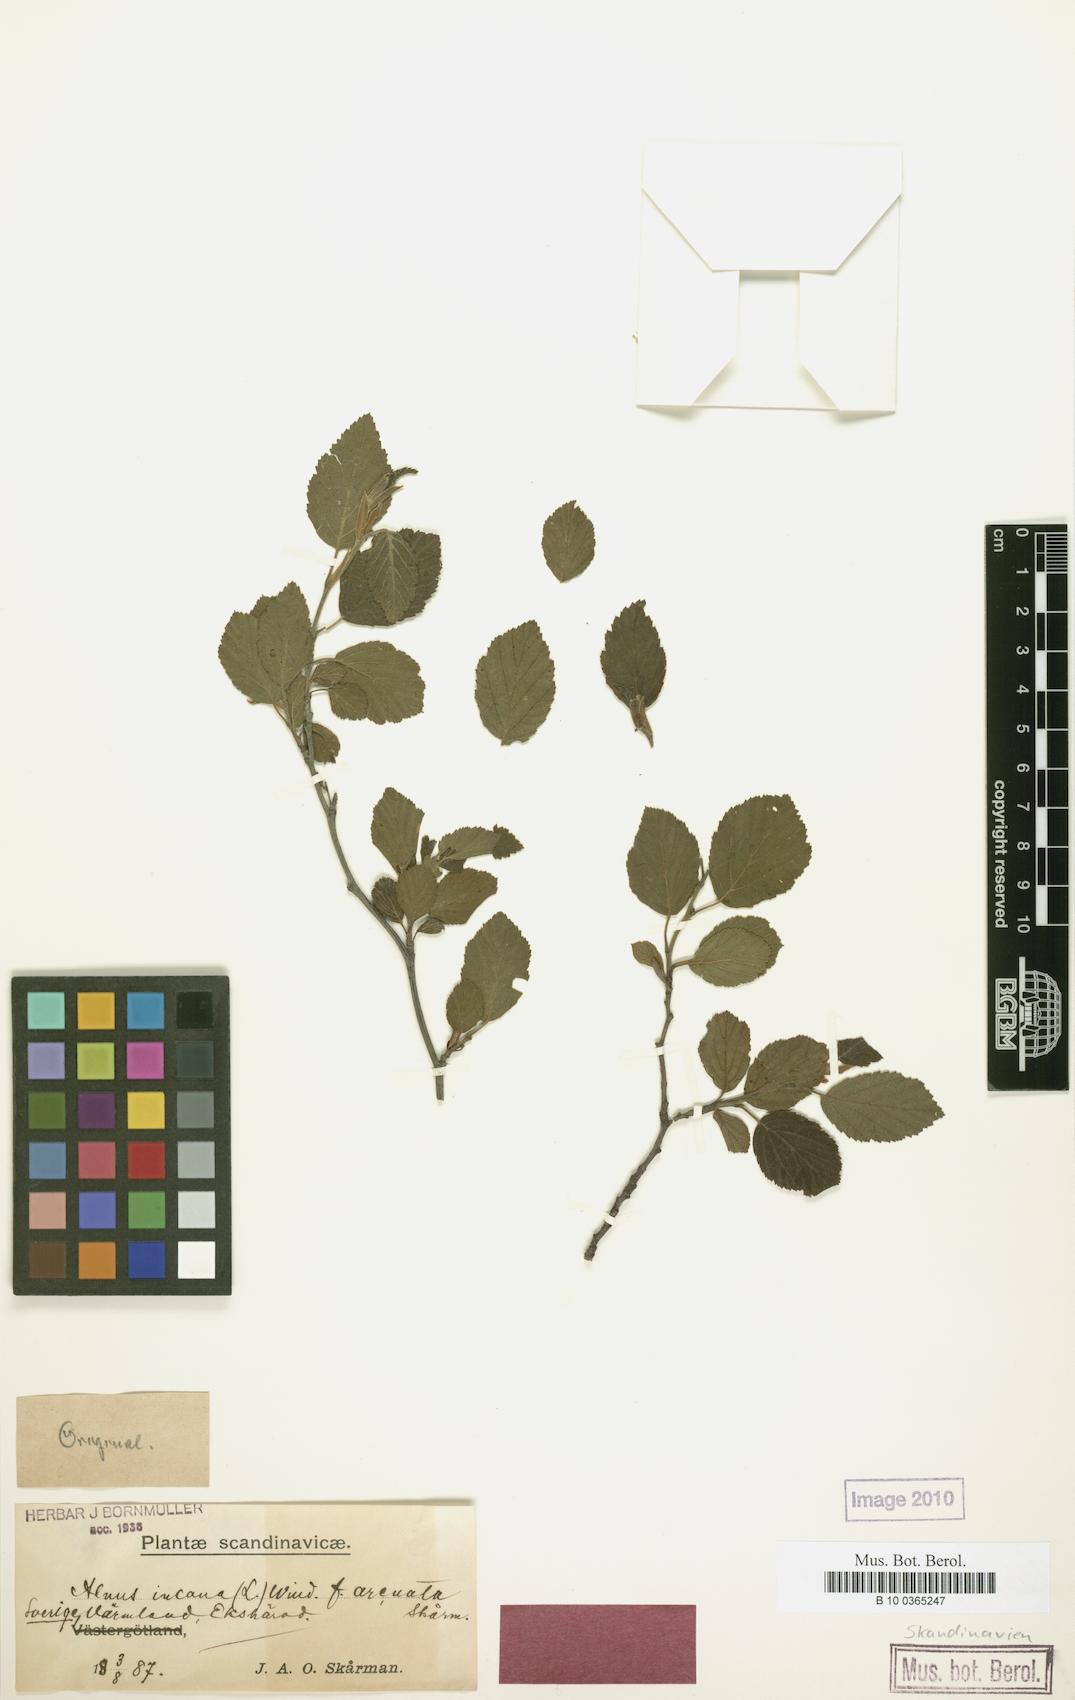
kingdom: Plantae
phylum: Tracheophyta
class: Magnoliopsida
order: Fagales
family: Betulaceae
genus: Alnus
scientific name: Alnus incana
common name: Grey alder
